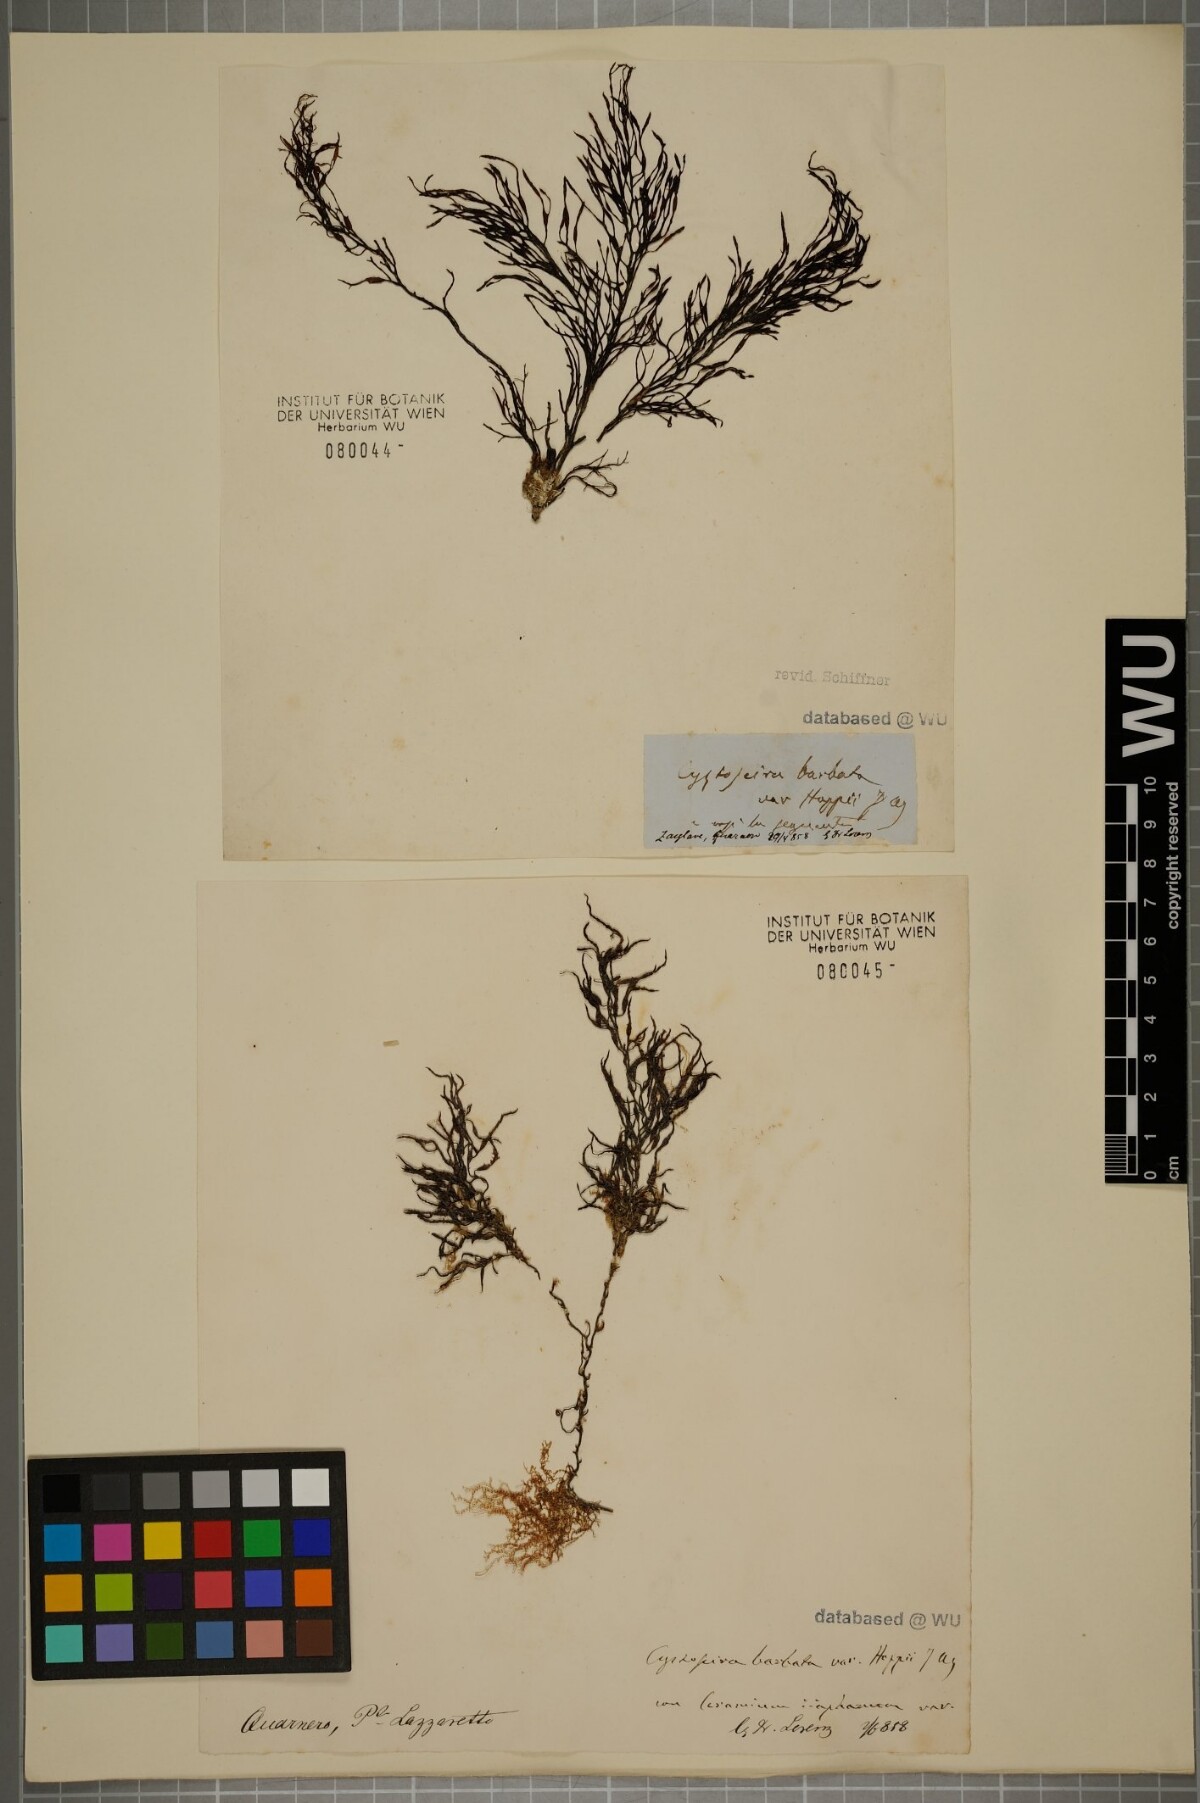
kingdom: Chromista
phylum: Ochrophyta
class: Phaeophyceae
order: Fucales
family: Sargassaceae
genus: Cystoseira
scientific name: Cystoseira Gongolaria barbata
